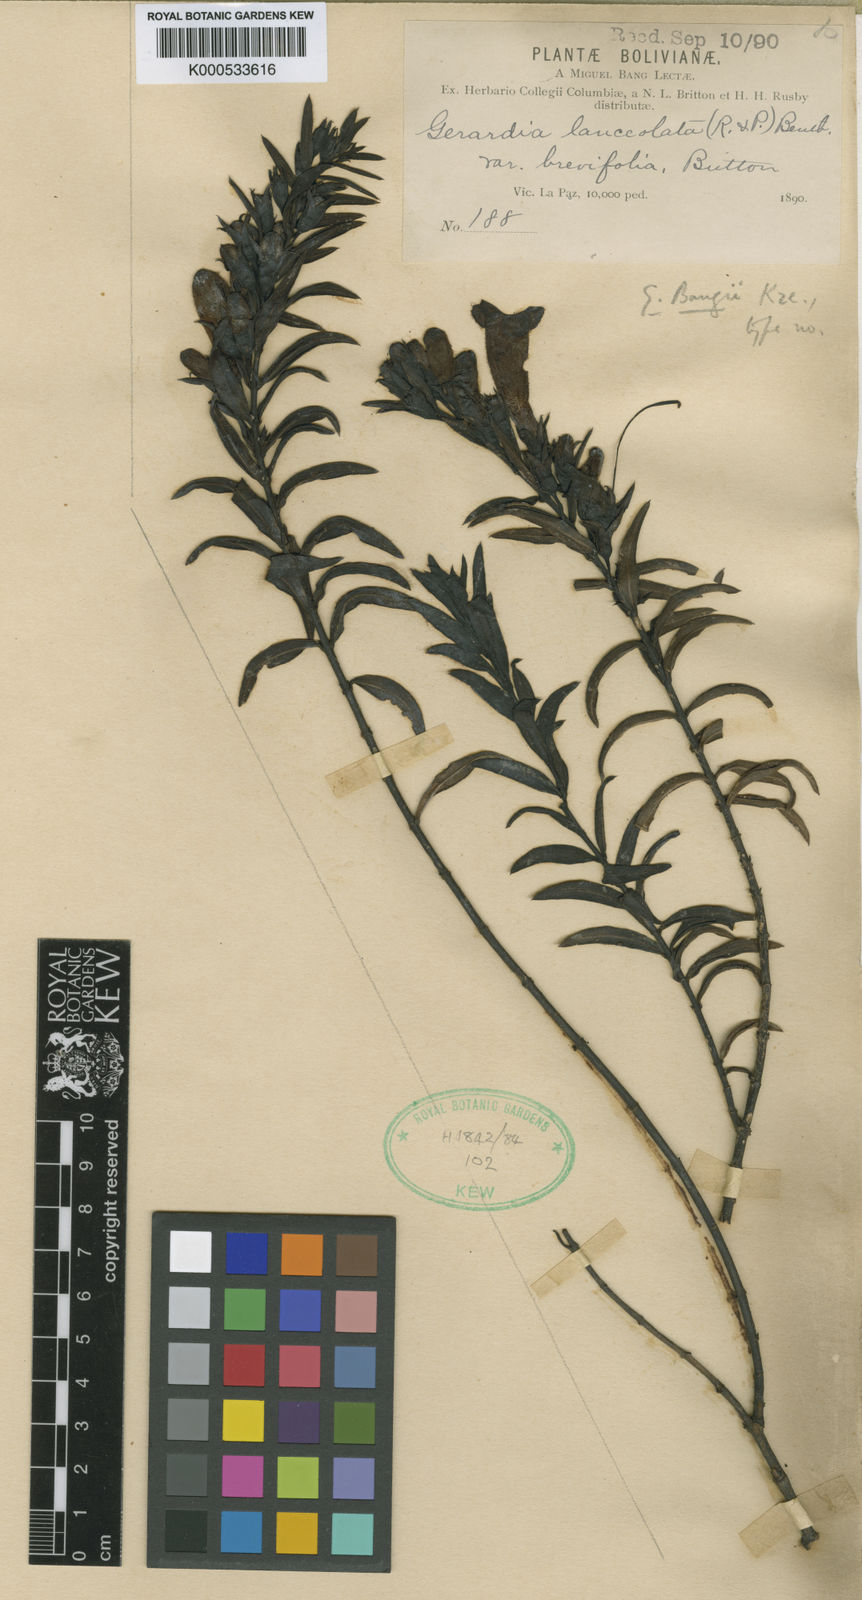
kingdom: Plantae
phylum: Tracheophyta
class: Magnoliopsida
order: Lamiales
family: Orobanchaceae
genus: Agalinis
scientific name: Agalinis bangii
